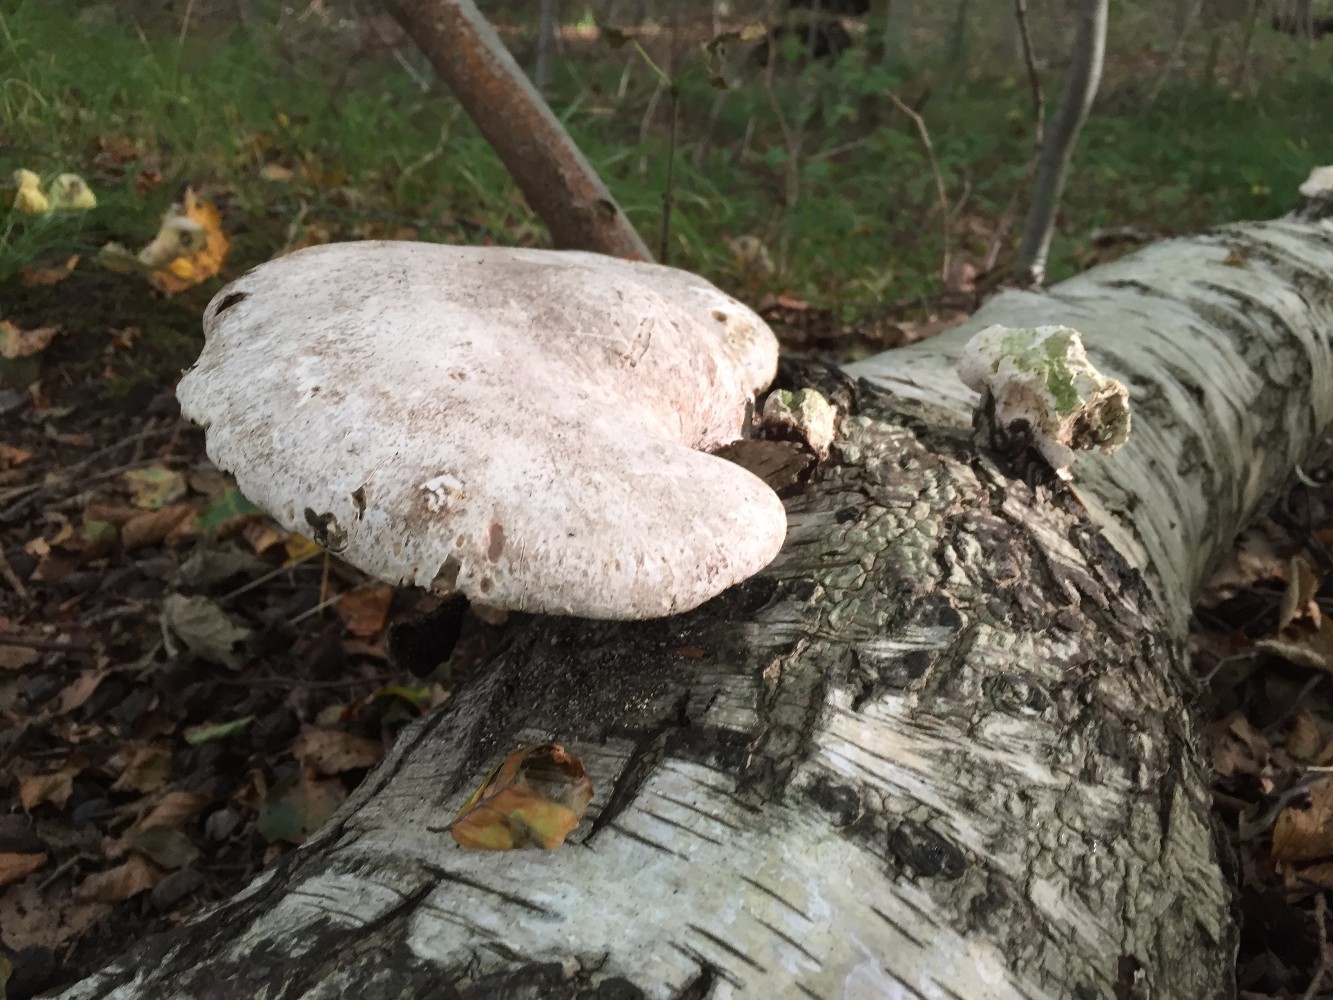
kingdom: Fungi
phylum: Basidiomycota
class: Agaricomycetes
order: Polyporales
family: Fomitopsidaceae
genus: Fomitopsis
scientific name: Fomitopsis betulina
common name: birkeporesvamp
